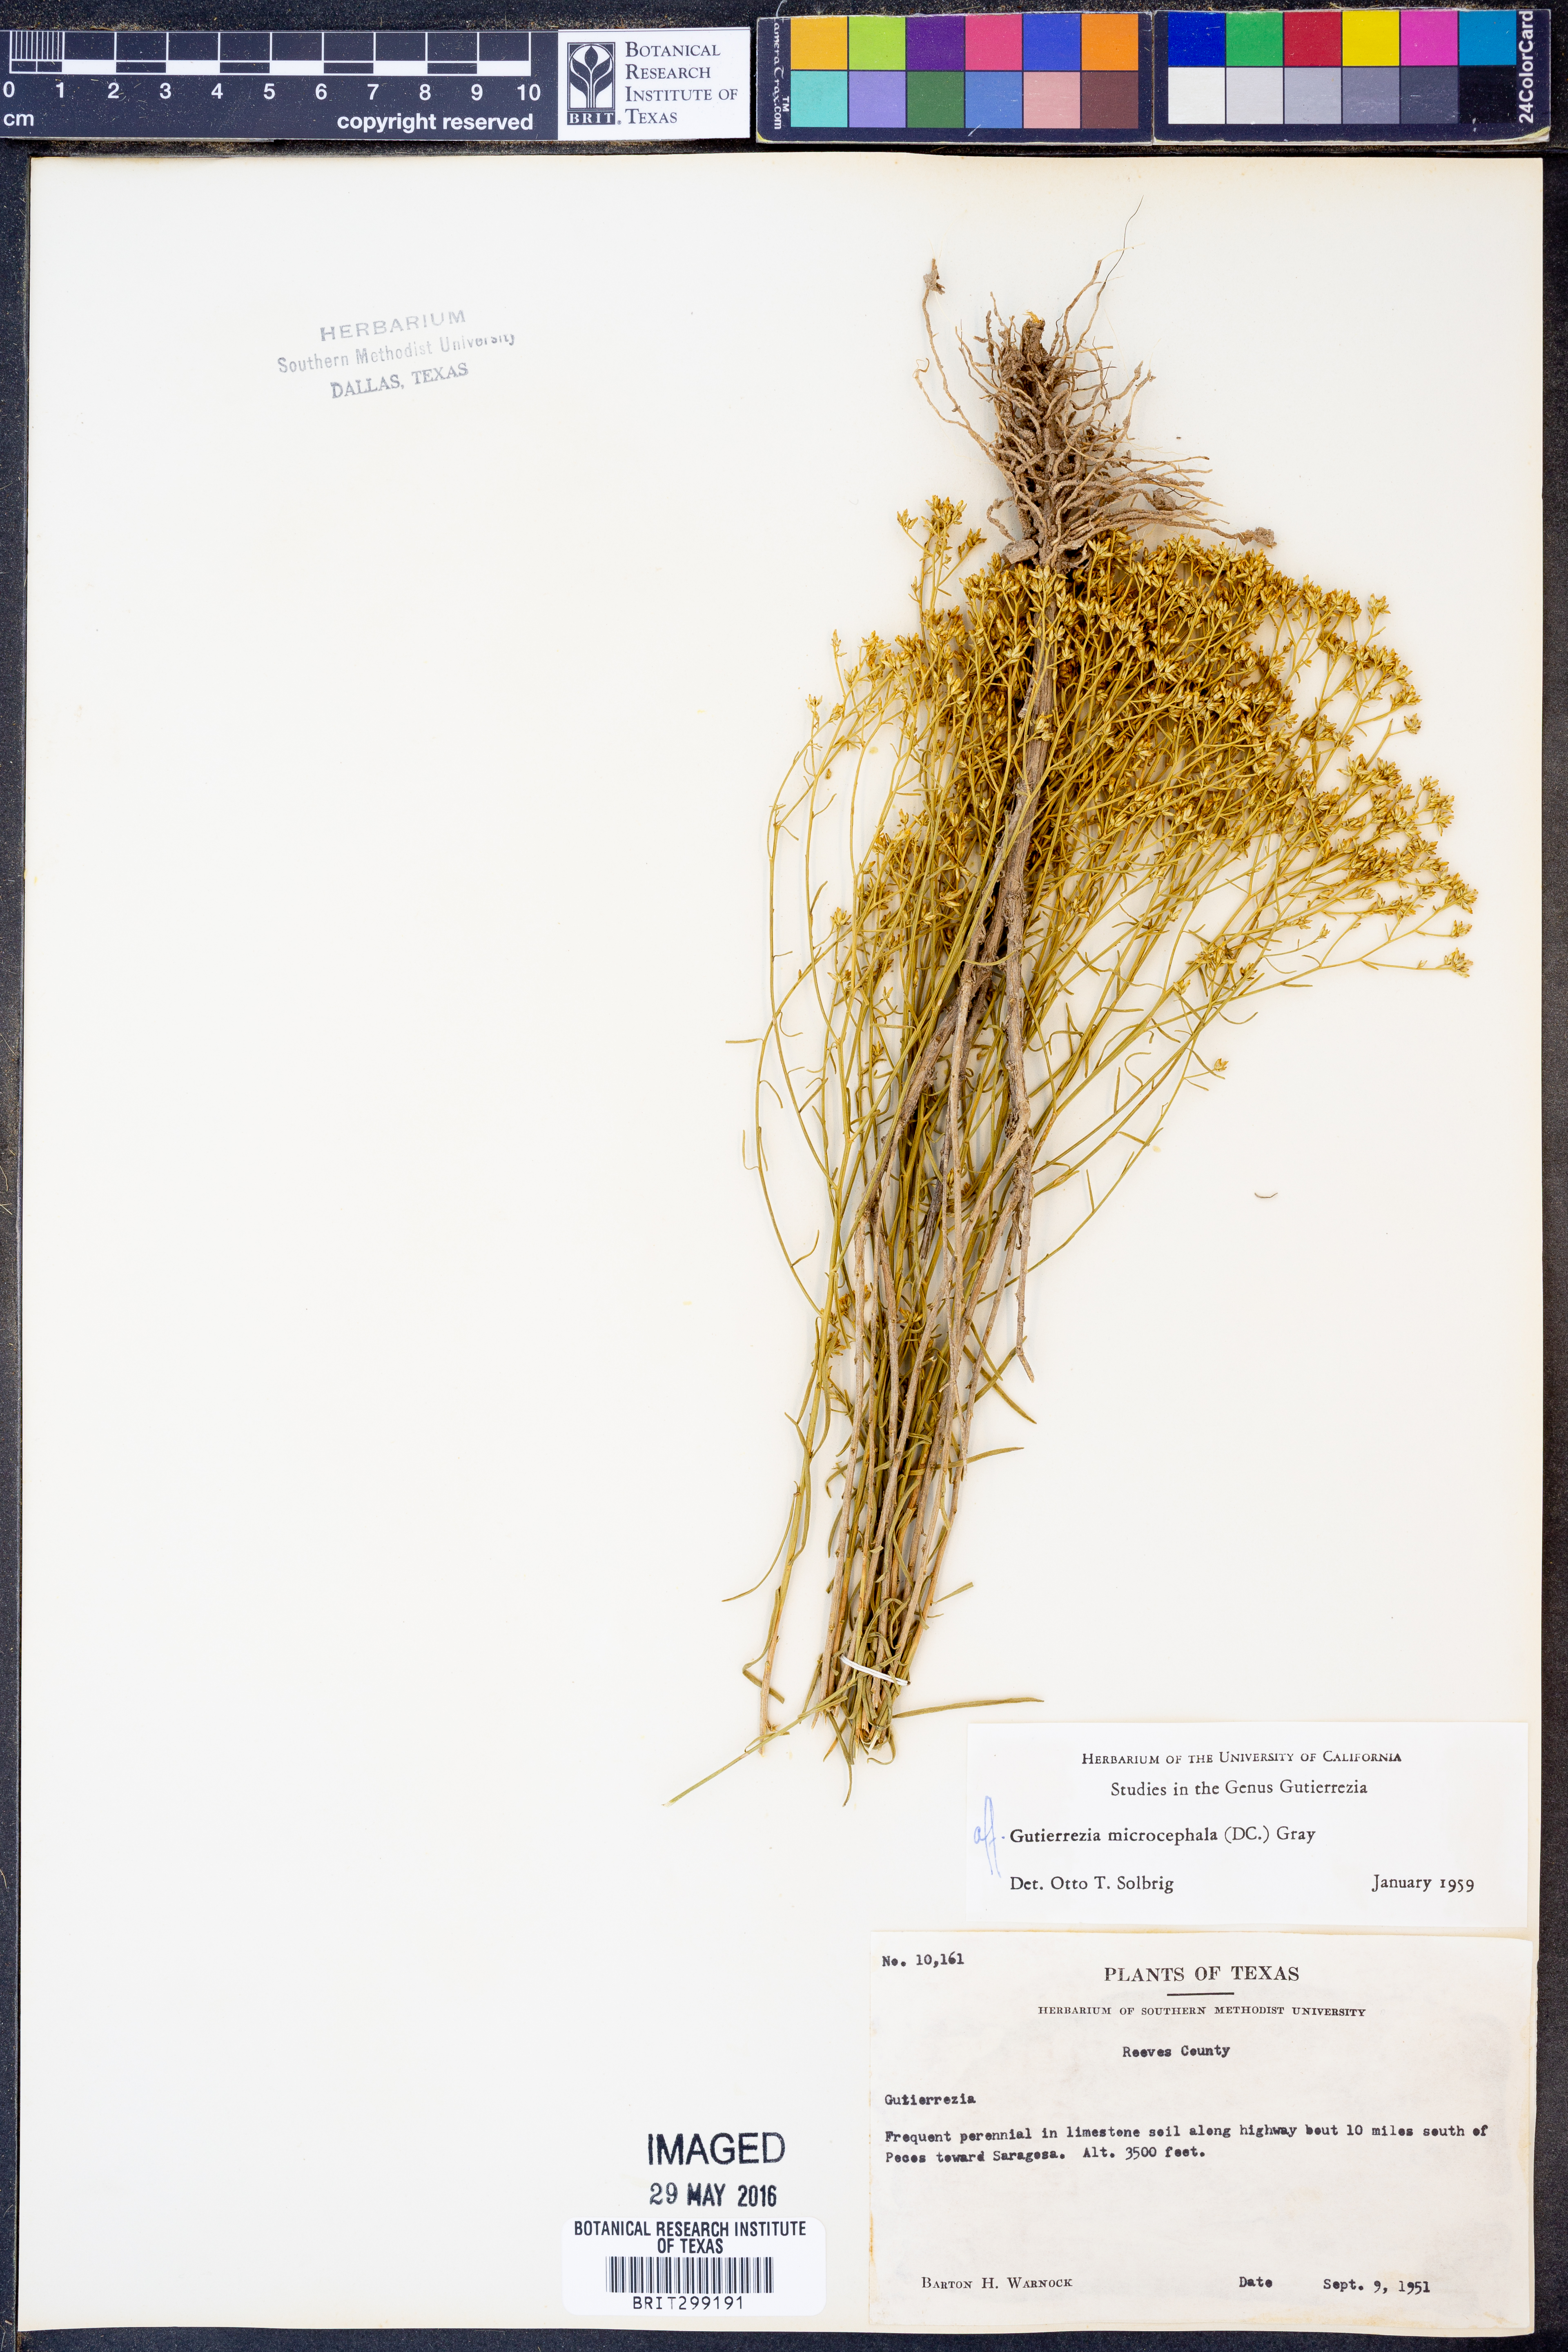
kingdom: Plantae
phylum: Tracheophyta
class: Magnoliopsida
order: Asterales
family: Asteraceae
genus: Gutierrezia
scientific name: Gutierrezia microcephala
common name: Thread snakeweed
